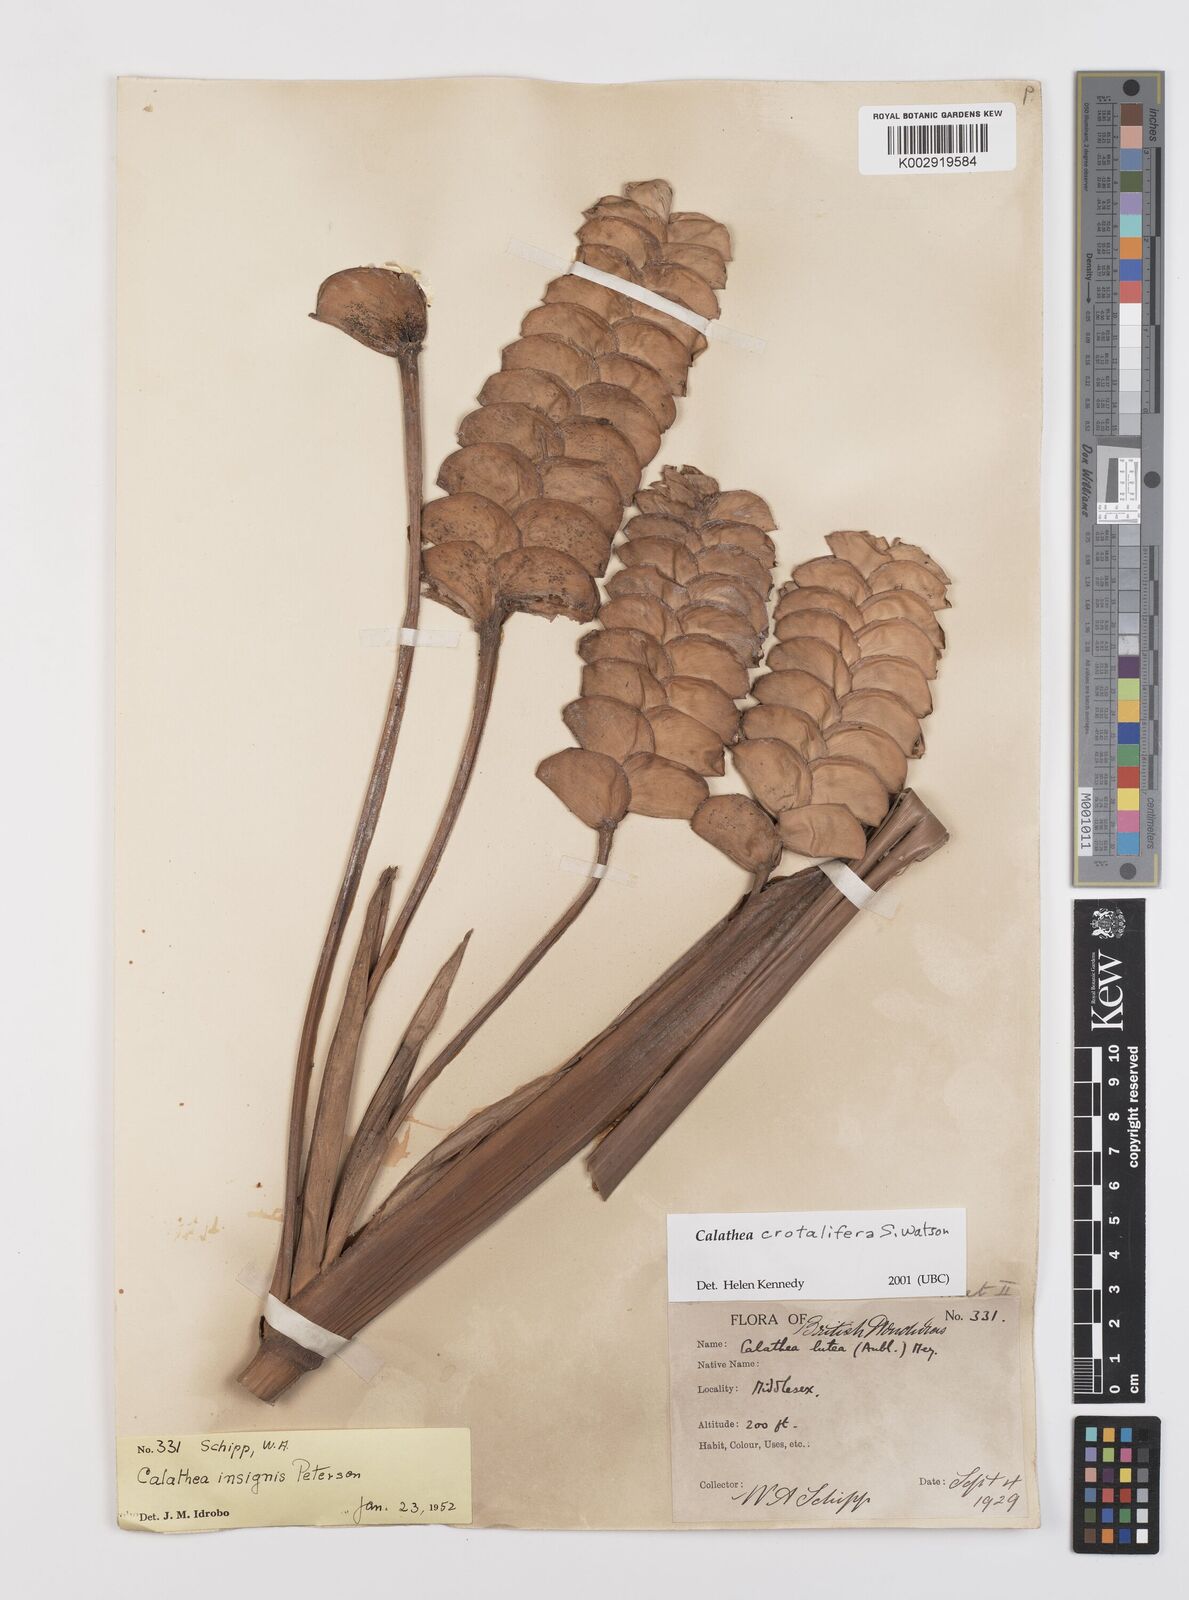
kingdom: Plantae
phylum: Tracheophyta
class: Liliopsida
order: Zingiberales
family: Marantaceae
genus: Calathea
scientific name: Calathea crotalifera
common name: Rattlesnake plant
